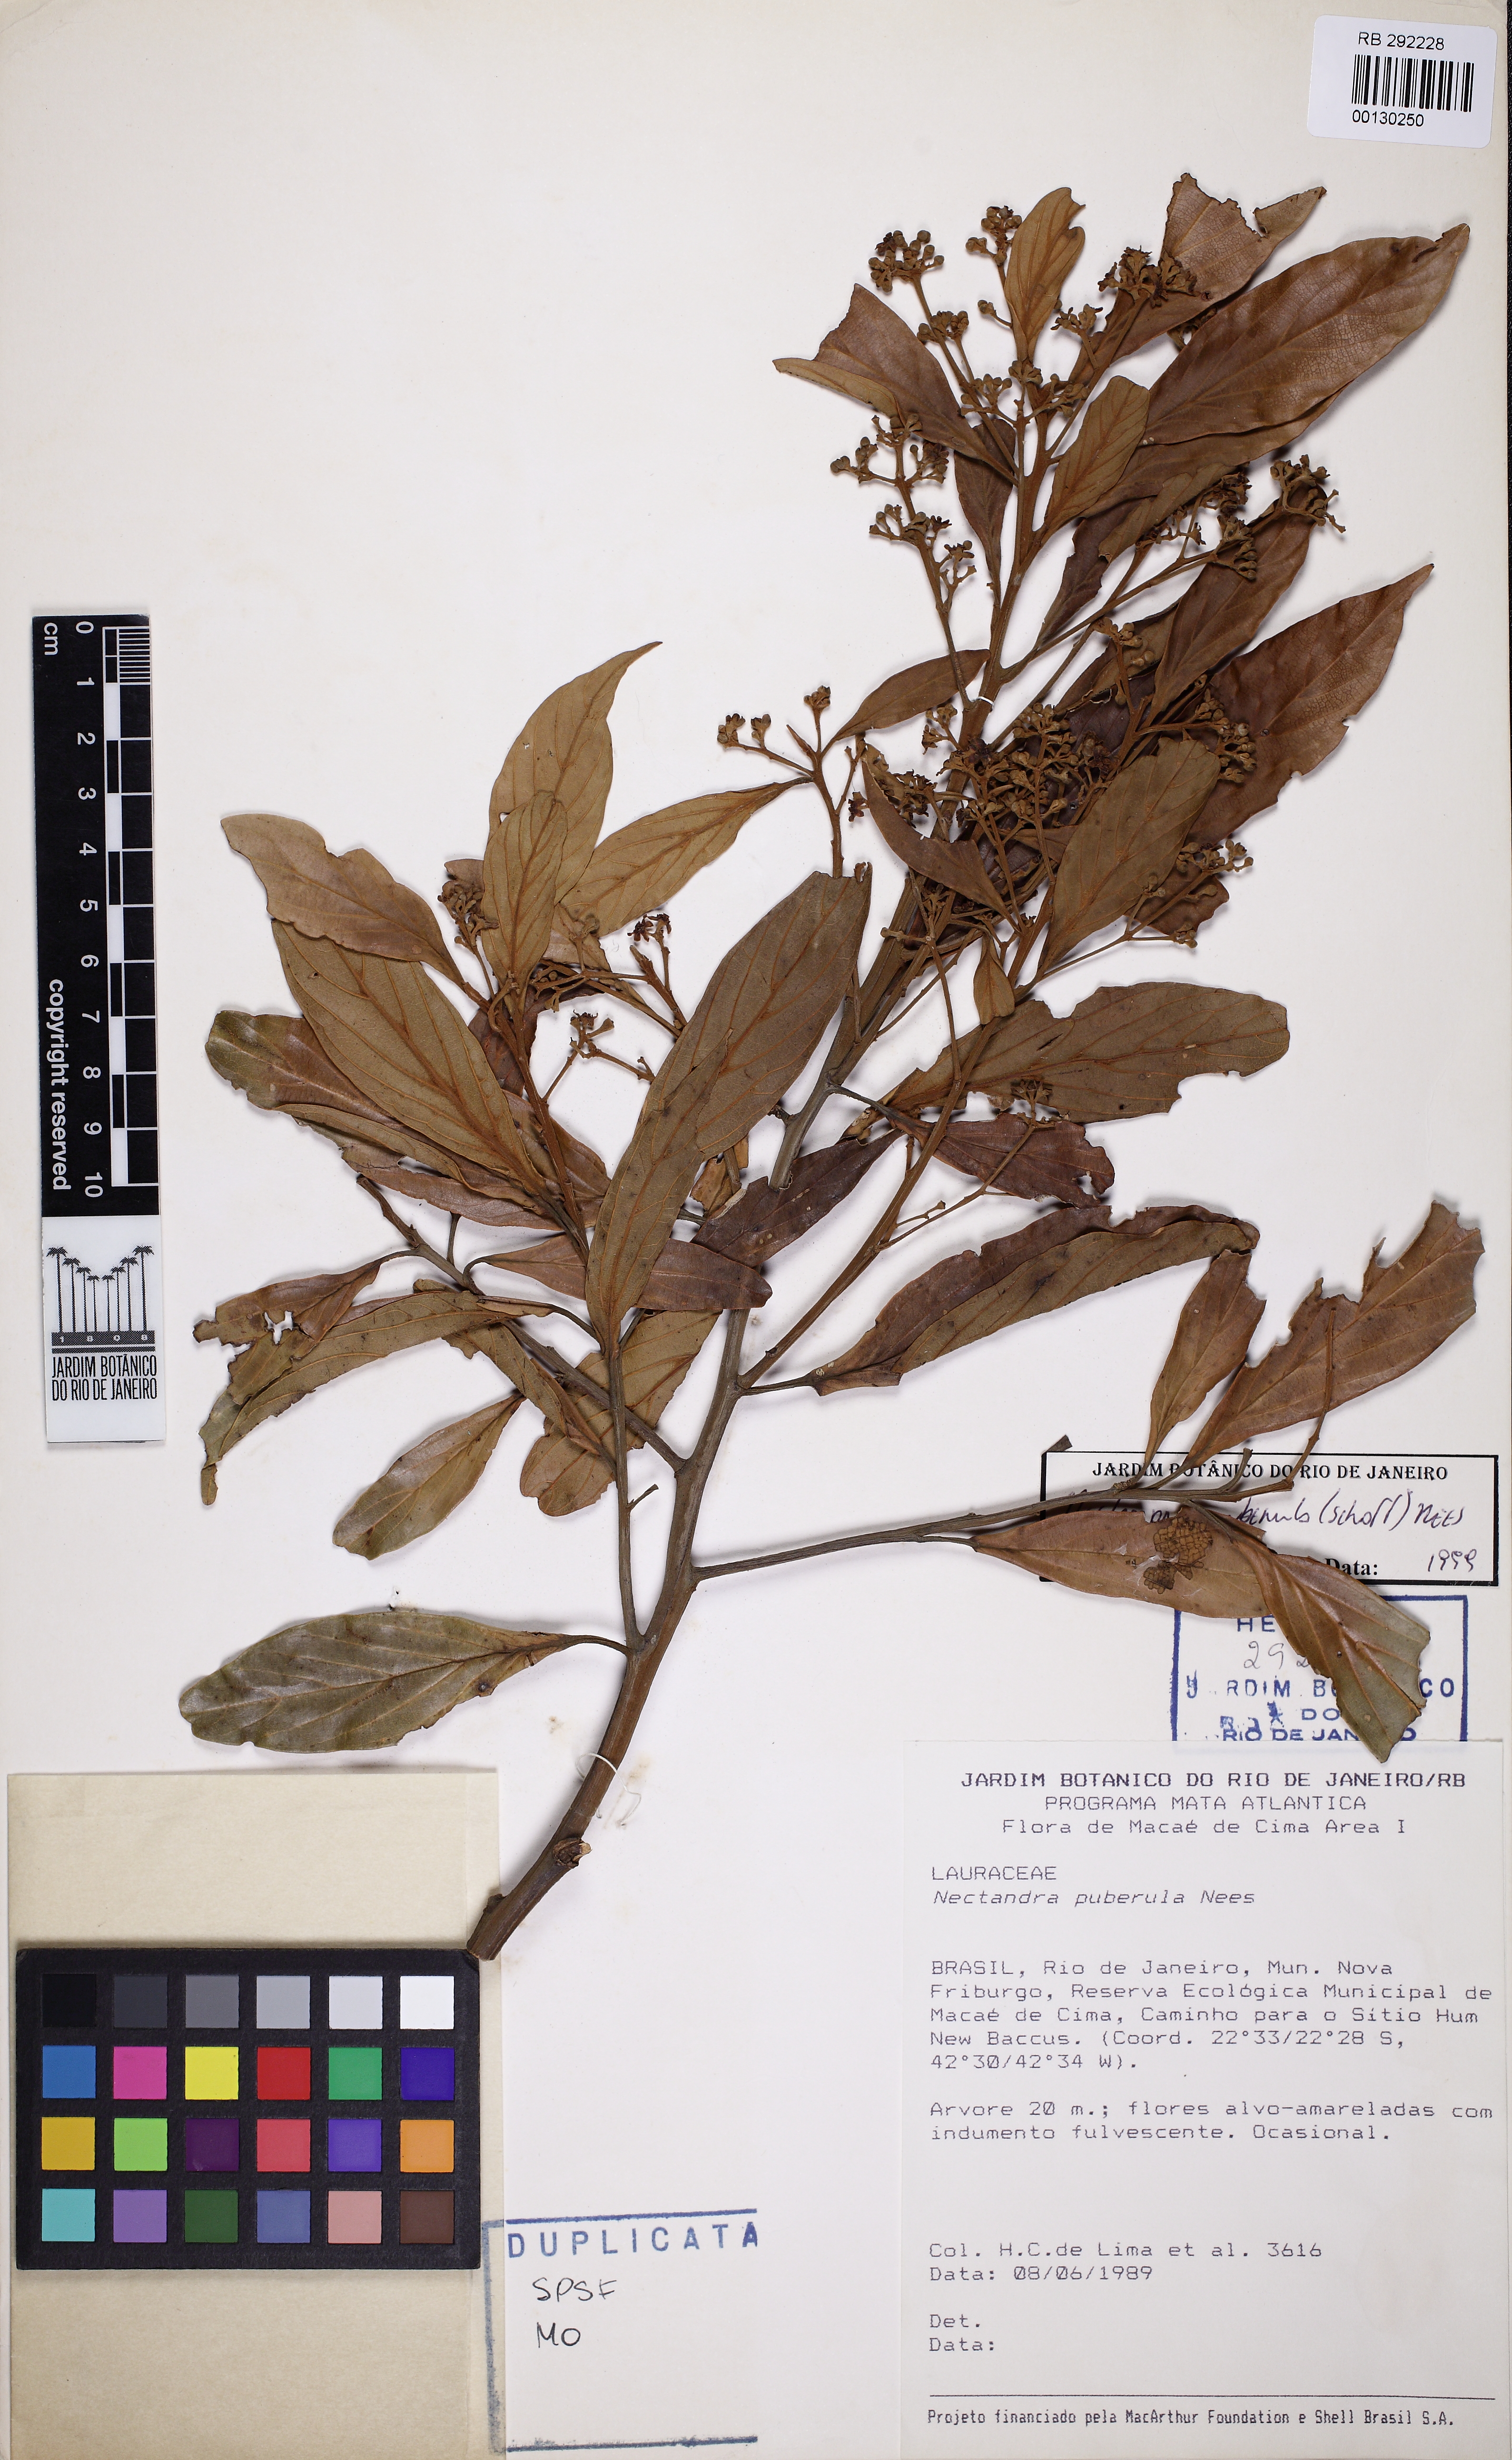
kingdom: Plantae
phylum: Tracheophyta
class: Magnoliopsida
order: Laurales
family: Lauraceae
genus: Nectandra
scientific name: Nectandra puberula
